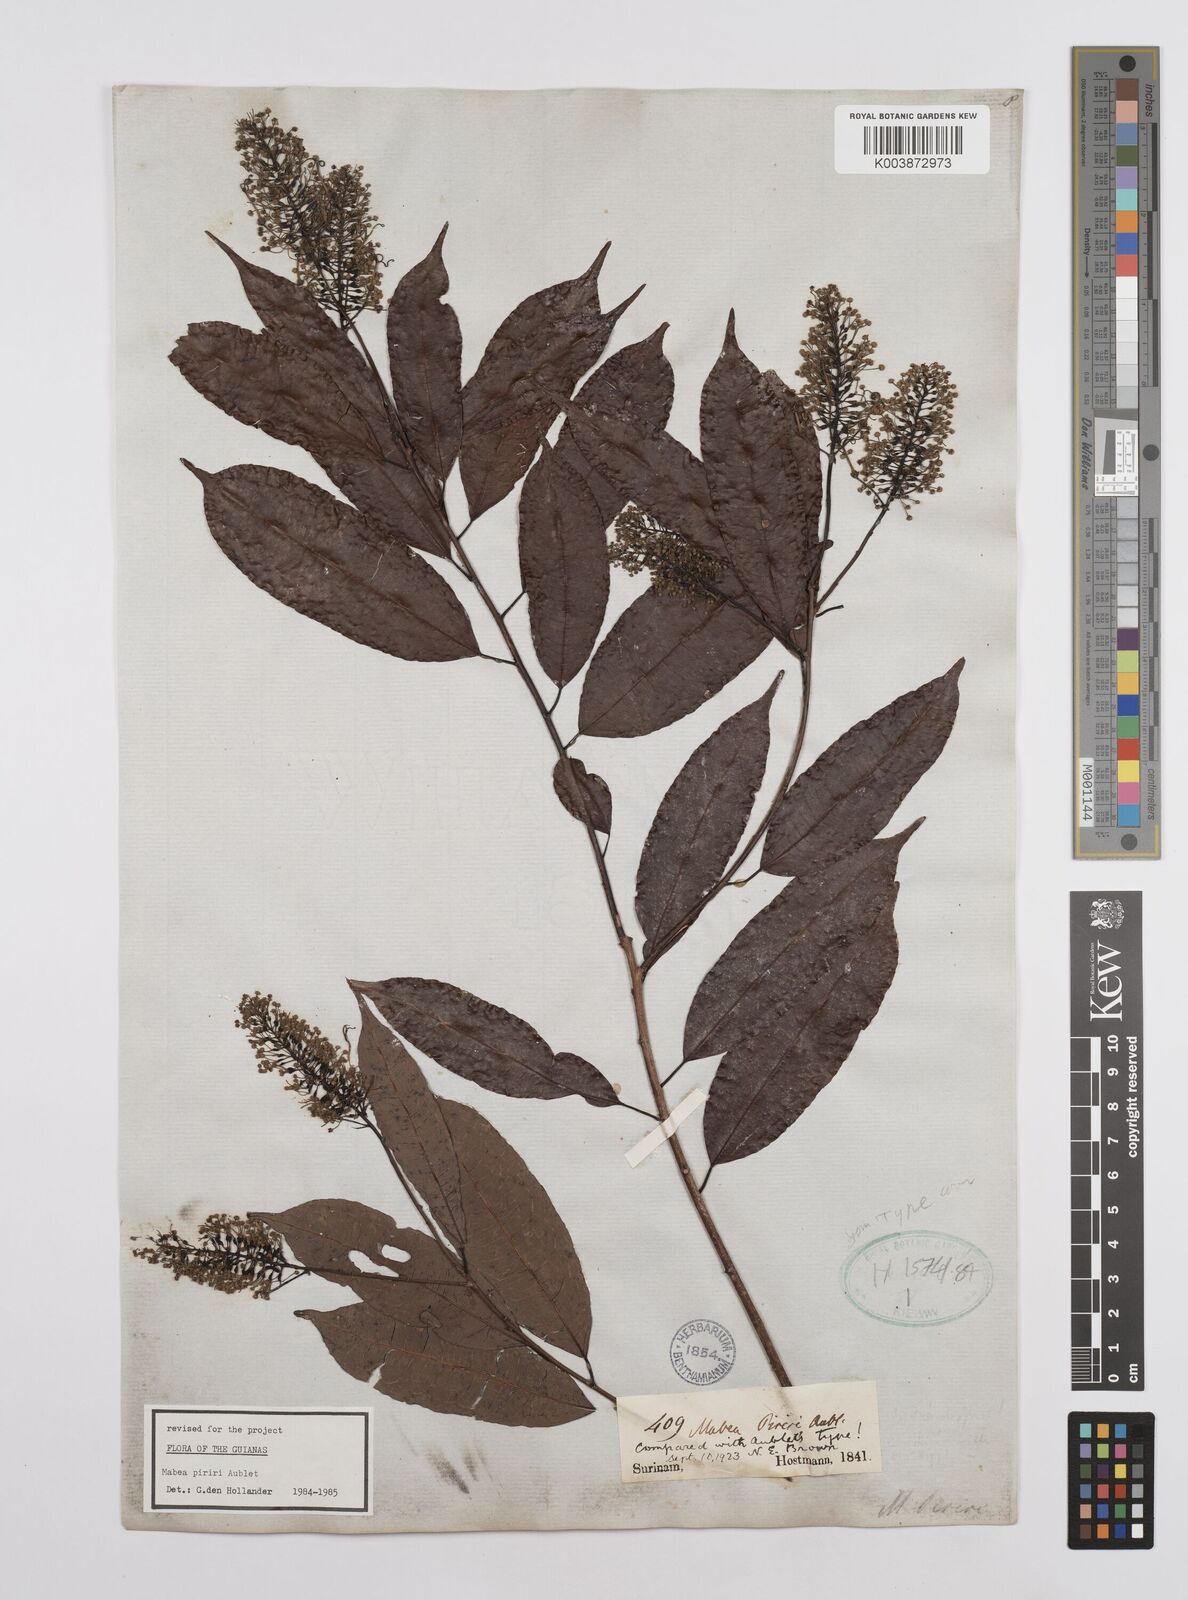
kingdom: Plantae
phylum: Tracheophyta
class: Magnoliopsida
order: Malpighiales
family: Euphorbiaceae
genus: Mabea
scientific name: Mabea piriri
